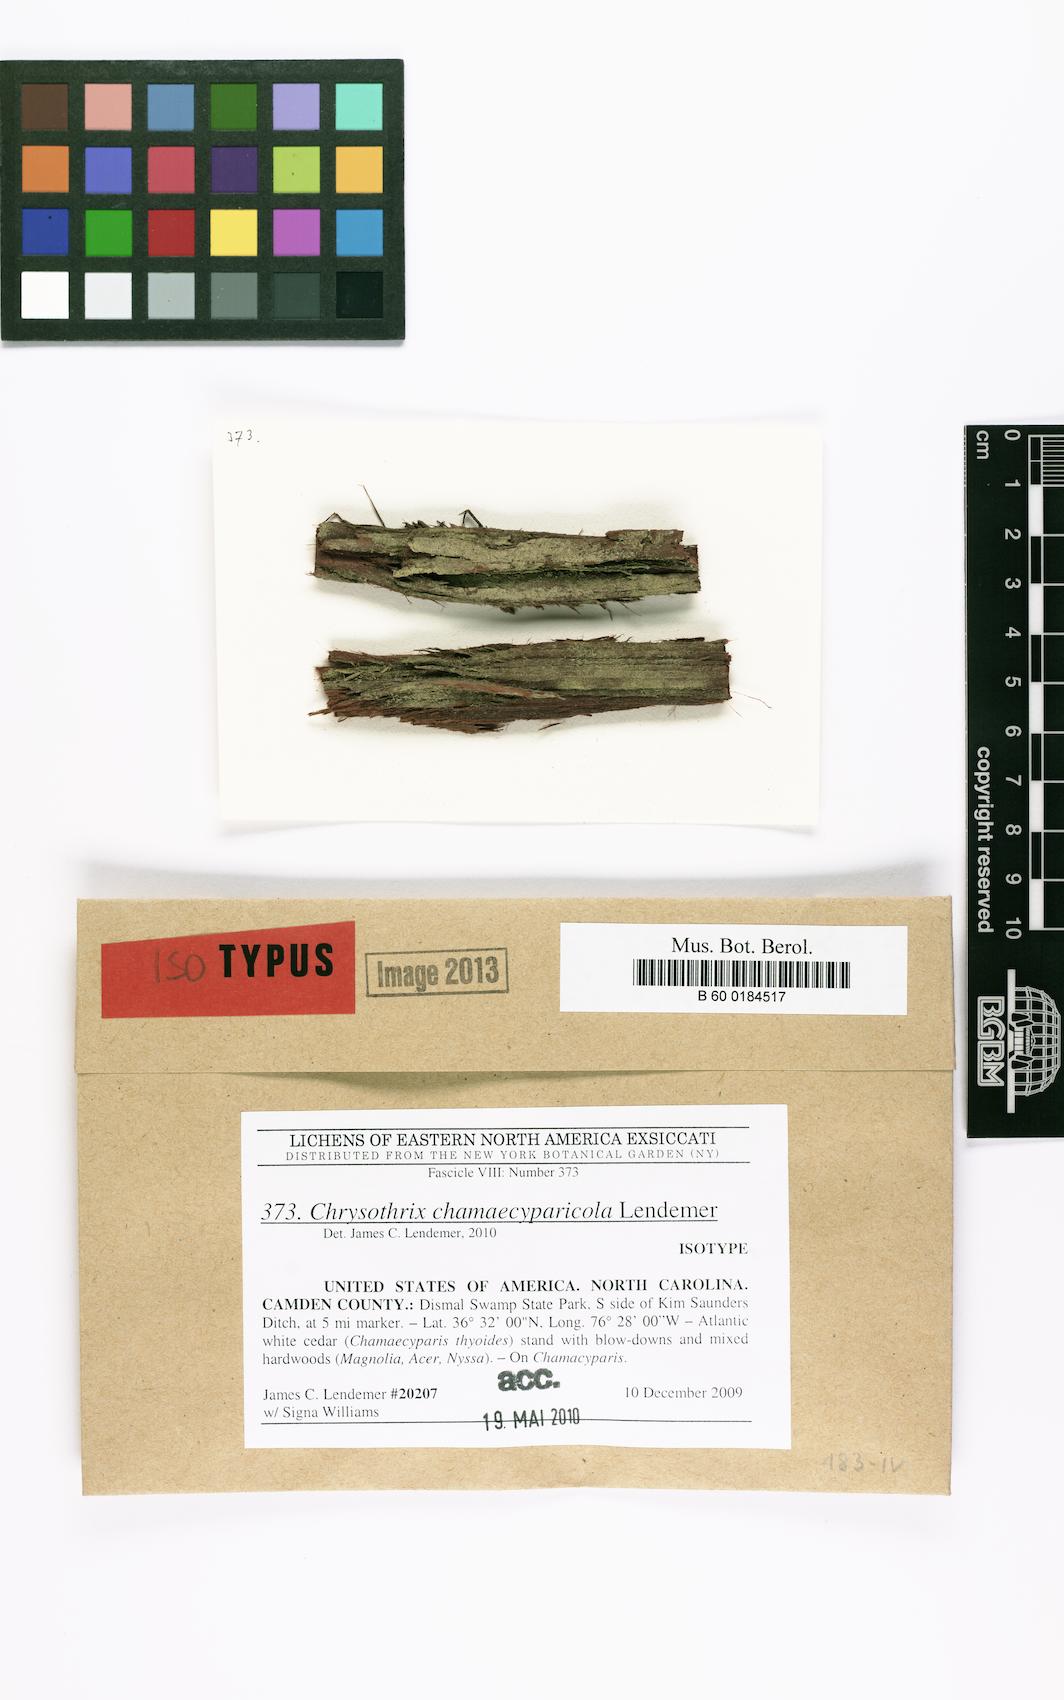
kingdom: Fungi
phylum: Ascomycota
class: Arthoniomycetes
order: Arthoniales
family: Chrysotrichaceae
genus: Chrysothrix
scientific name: Chrysothrix chamaecyparicola
